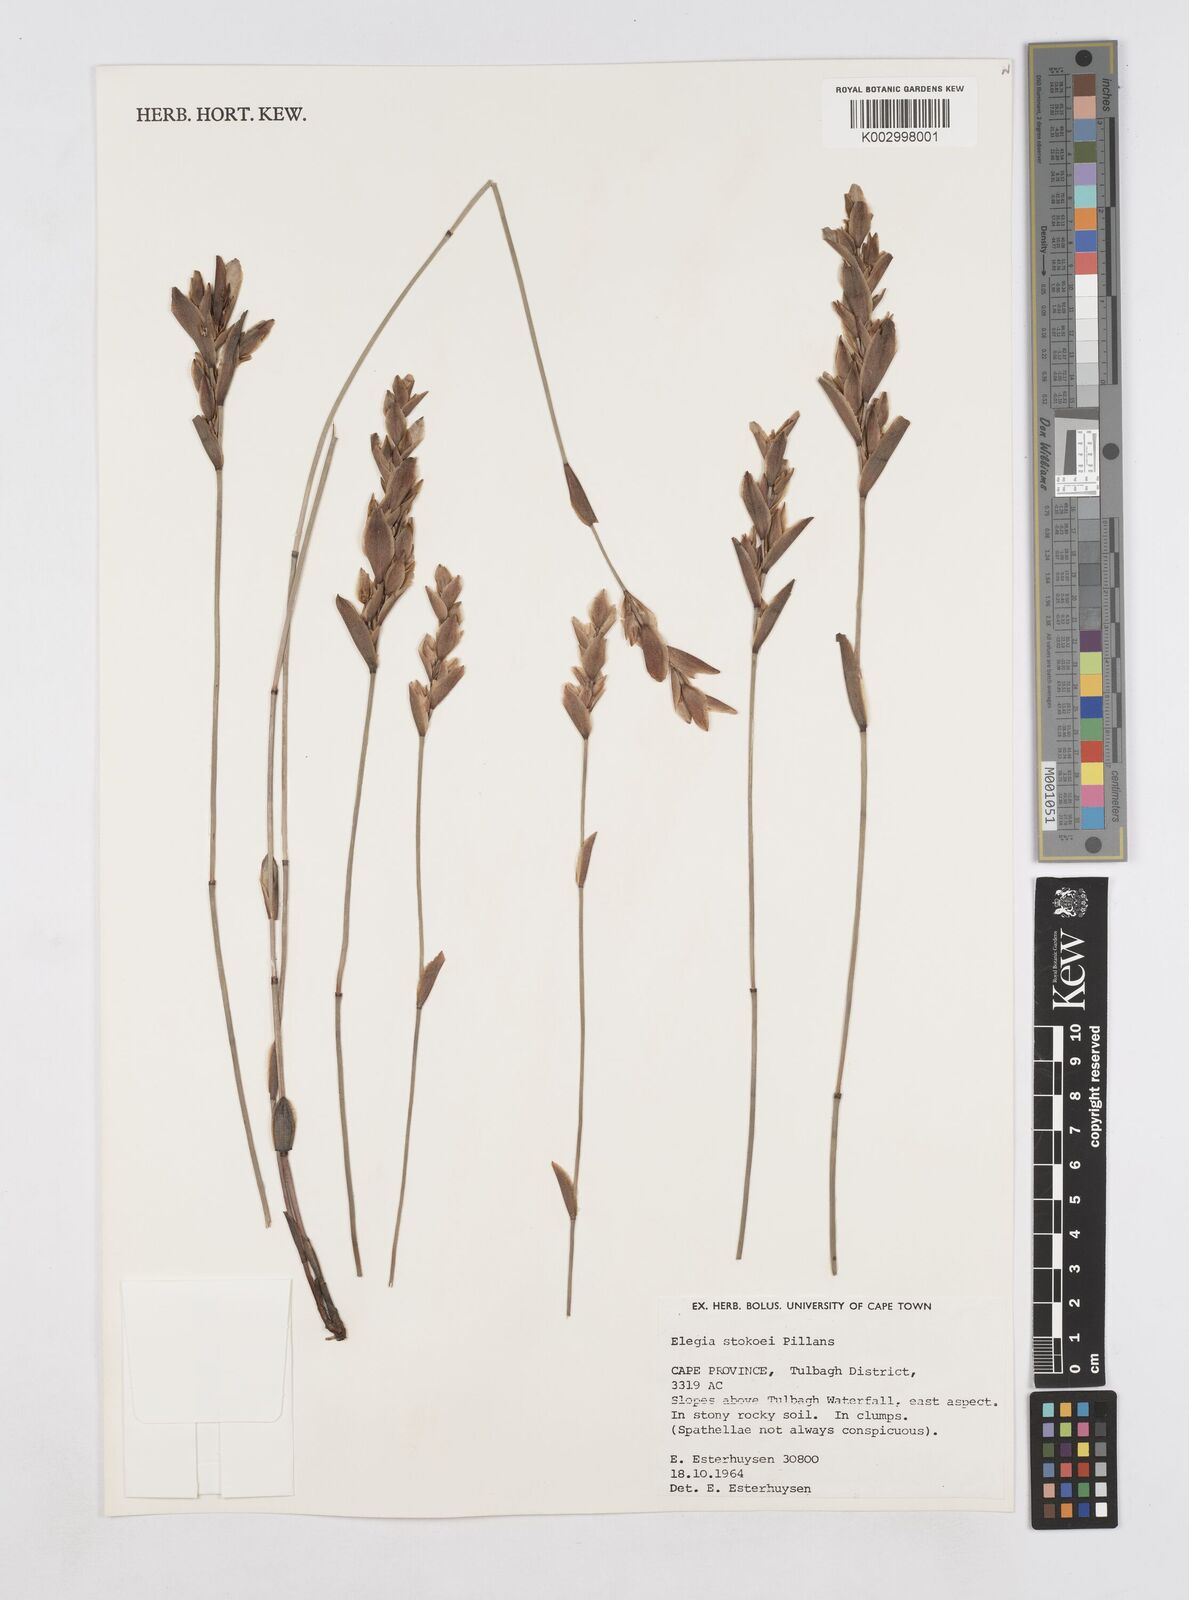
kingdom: Plantae
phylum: Tracheophyta
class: Liliopsida
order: Poales
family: Restionaceae
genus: Elegia
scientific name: Elegia stokoei
